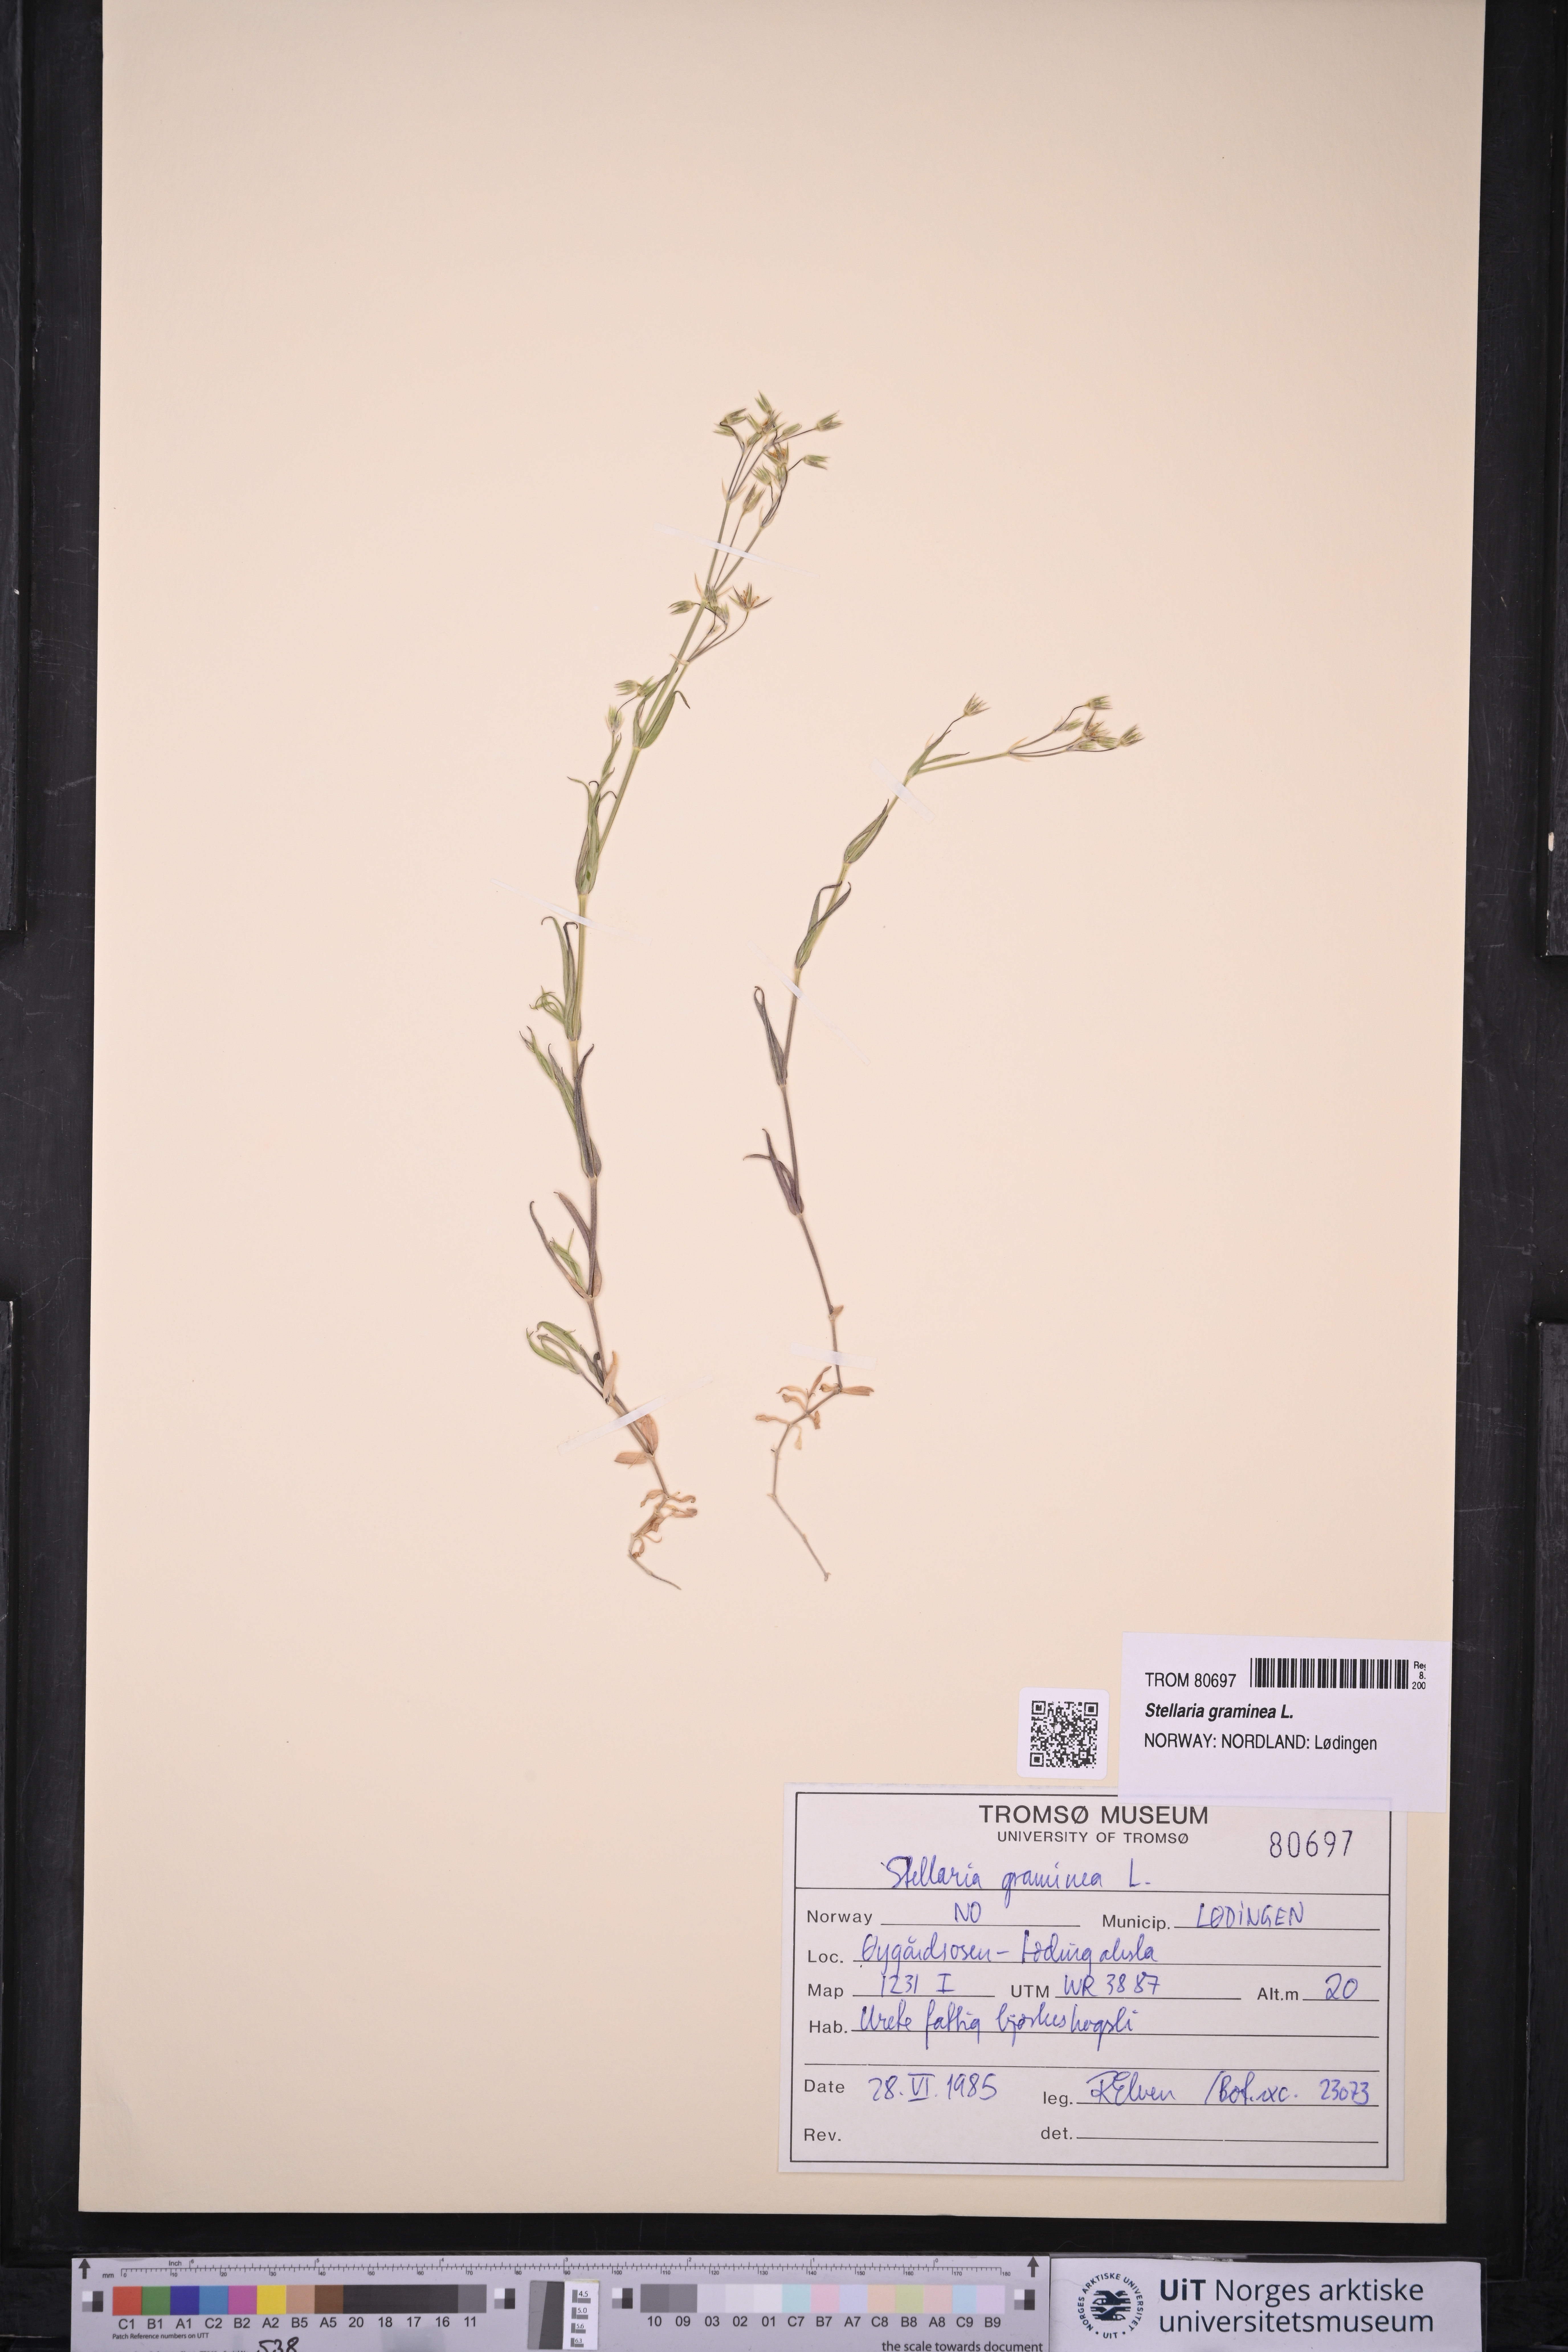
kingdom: Plantae
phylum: Tracheophyta
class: Magnoliopsida
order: Caryophyllales
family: Caryophyllaceae
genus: Stellaria
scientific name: Stellaria graminea
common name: Grass-like starwort
